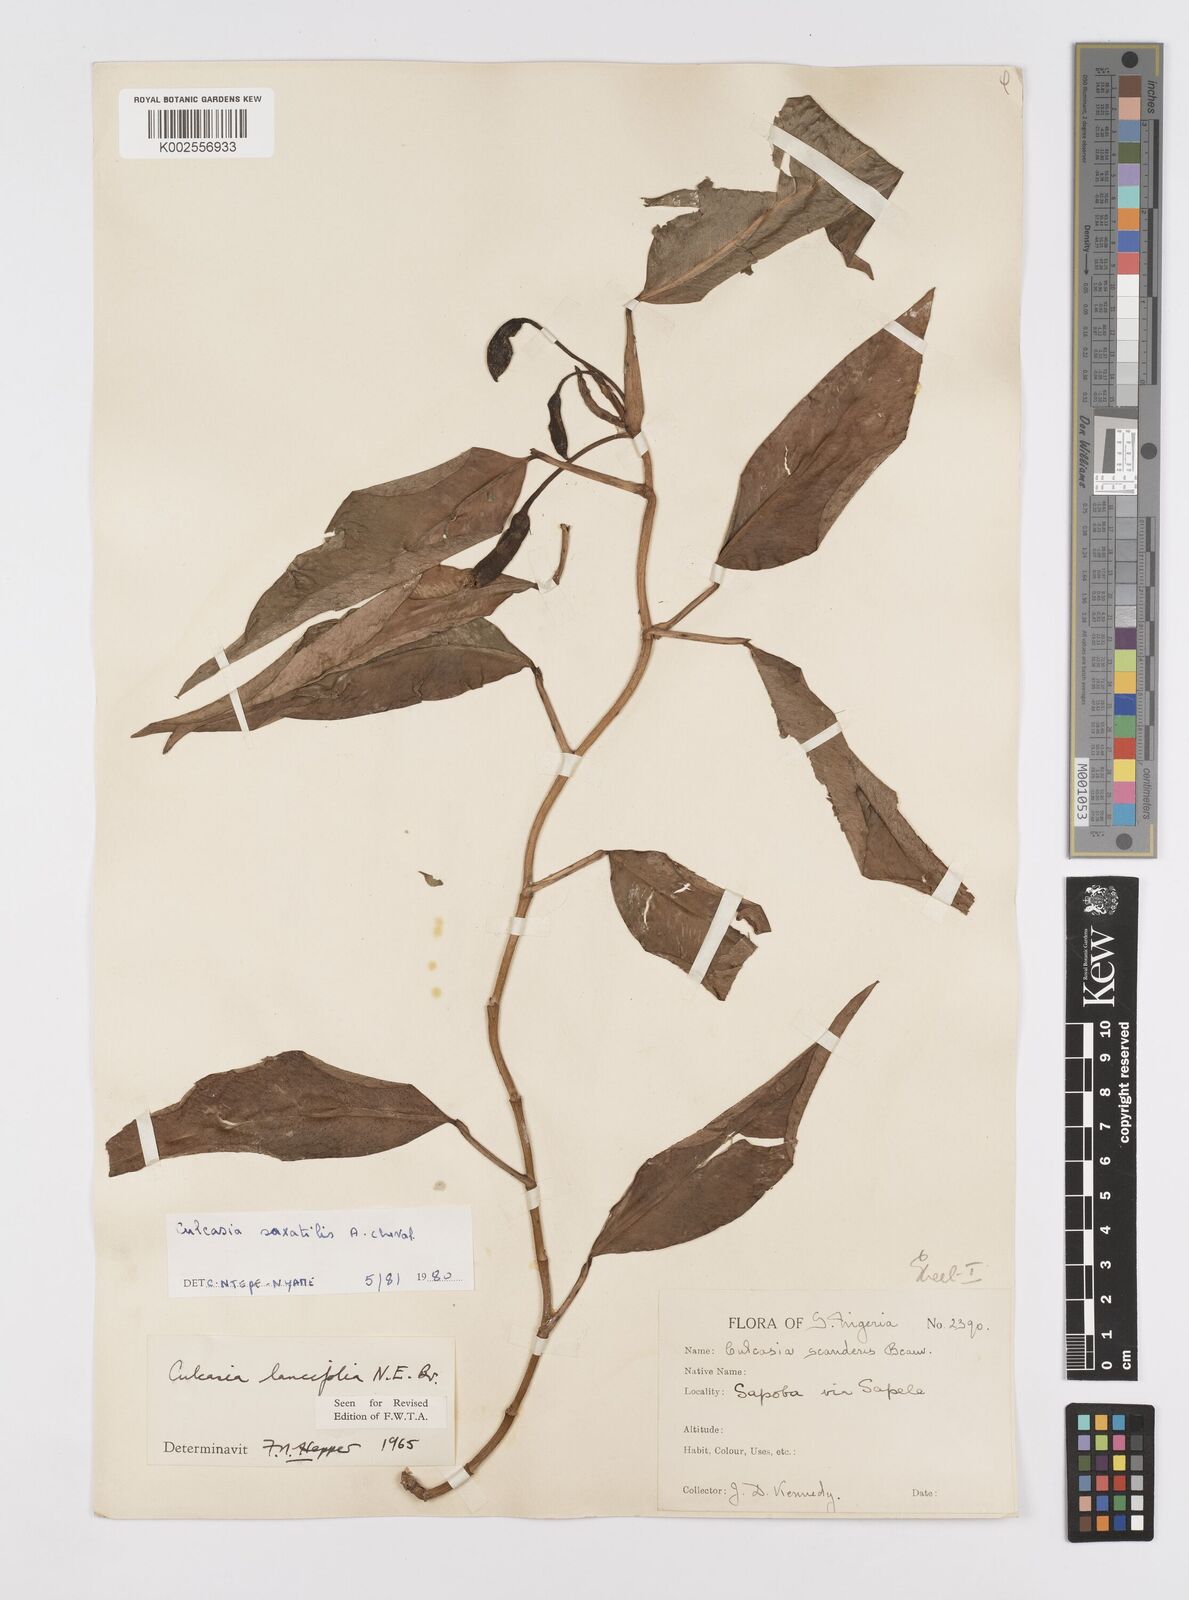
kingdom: Plantae
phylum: Tracheophyta
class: Liliopsida
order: Alismatales
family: Araceae
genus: Culcasia
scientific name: Culcasia scandens
